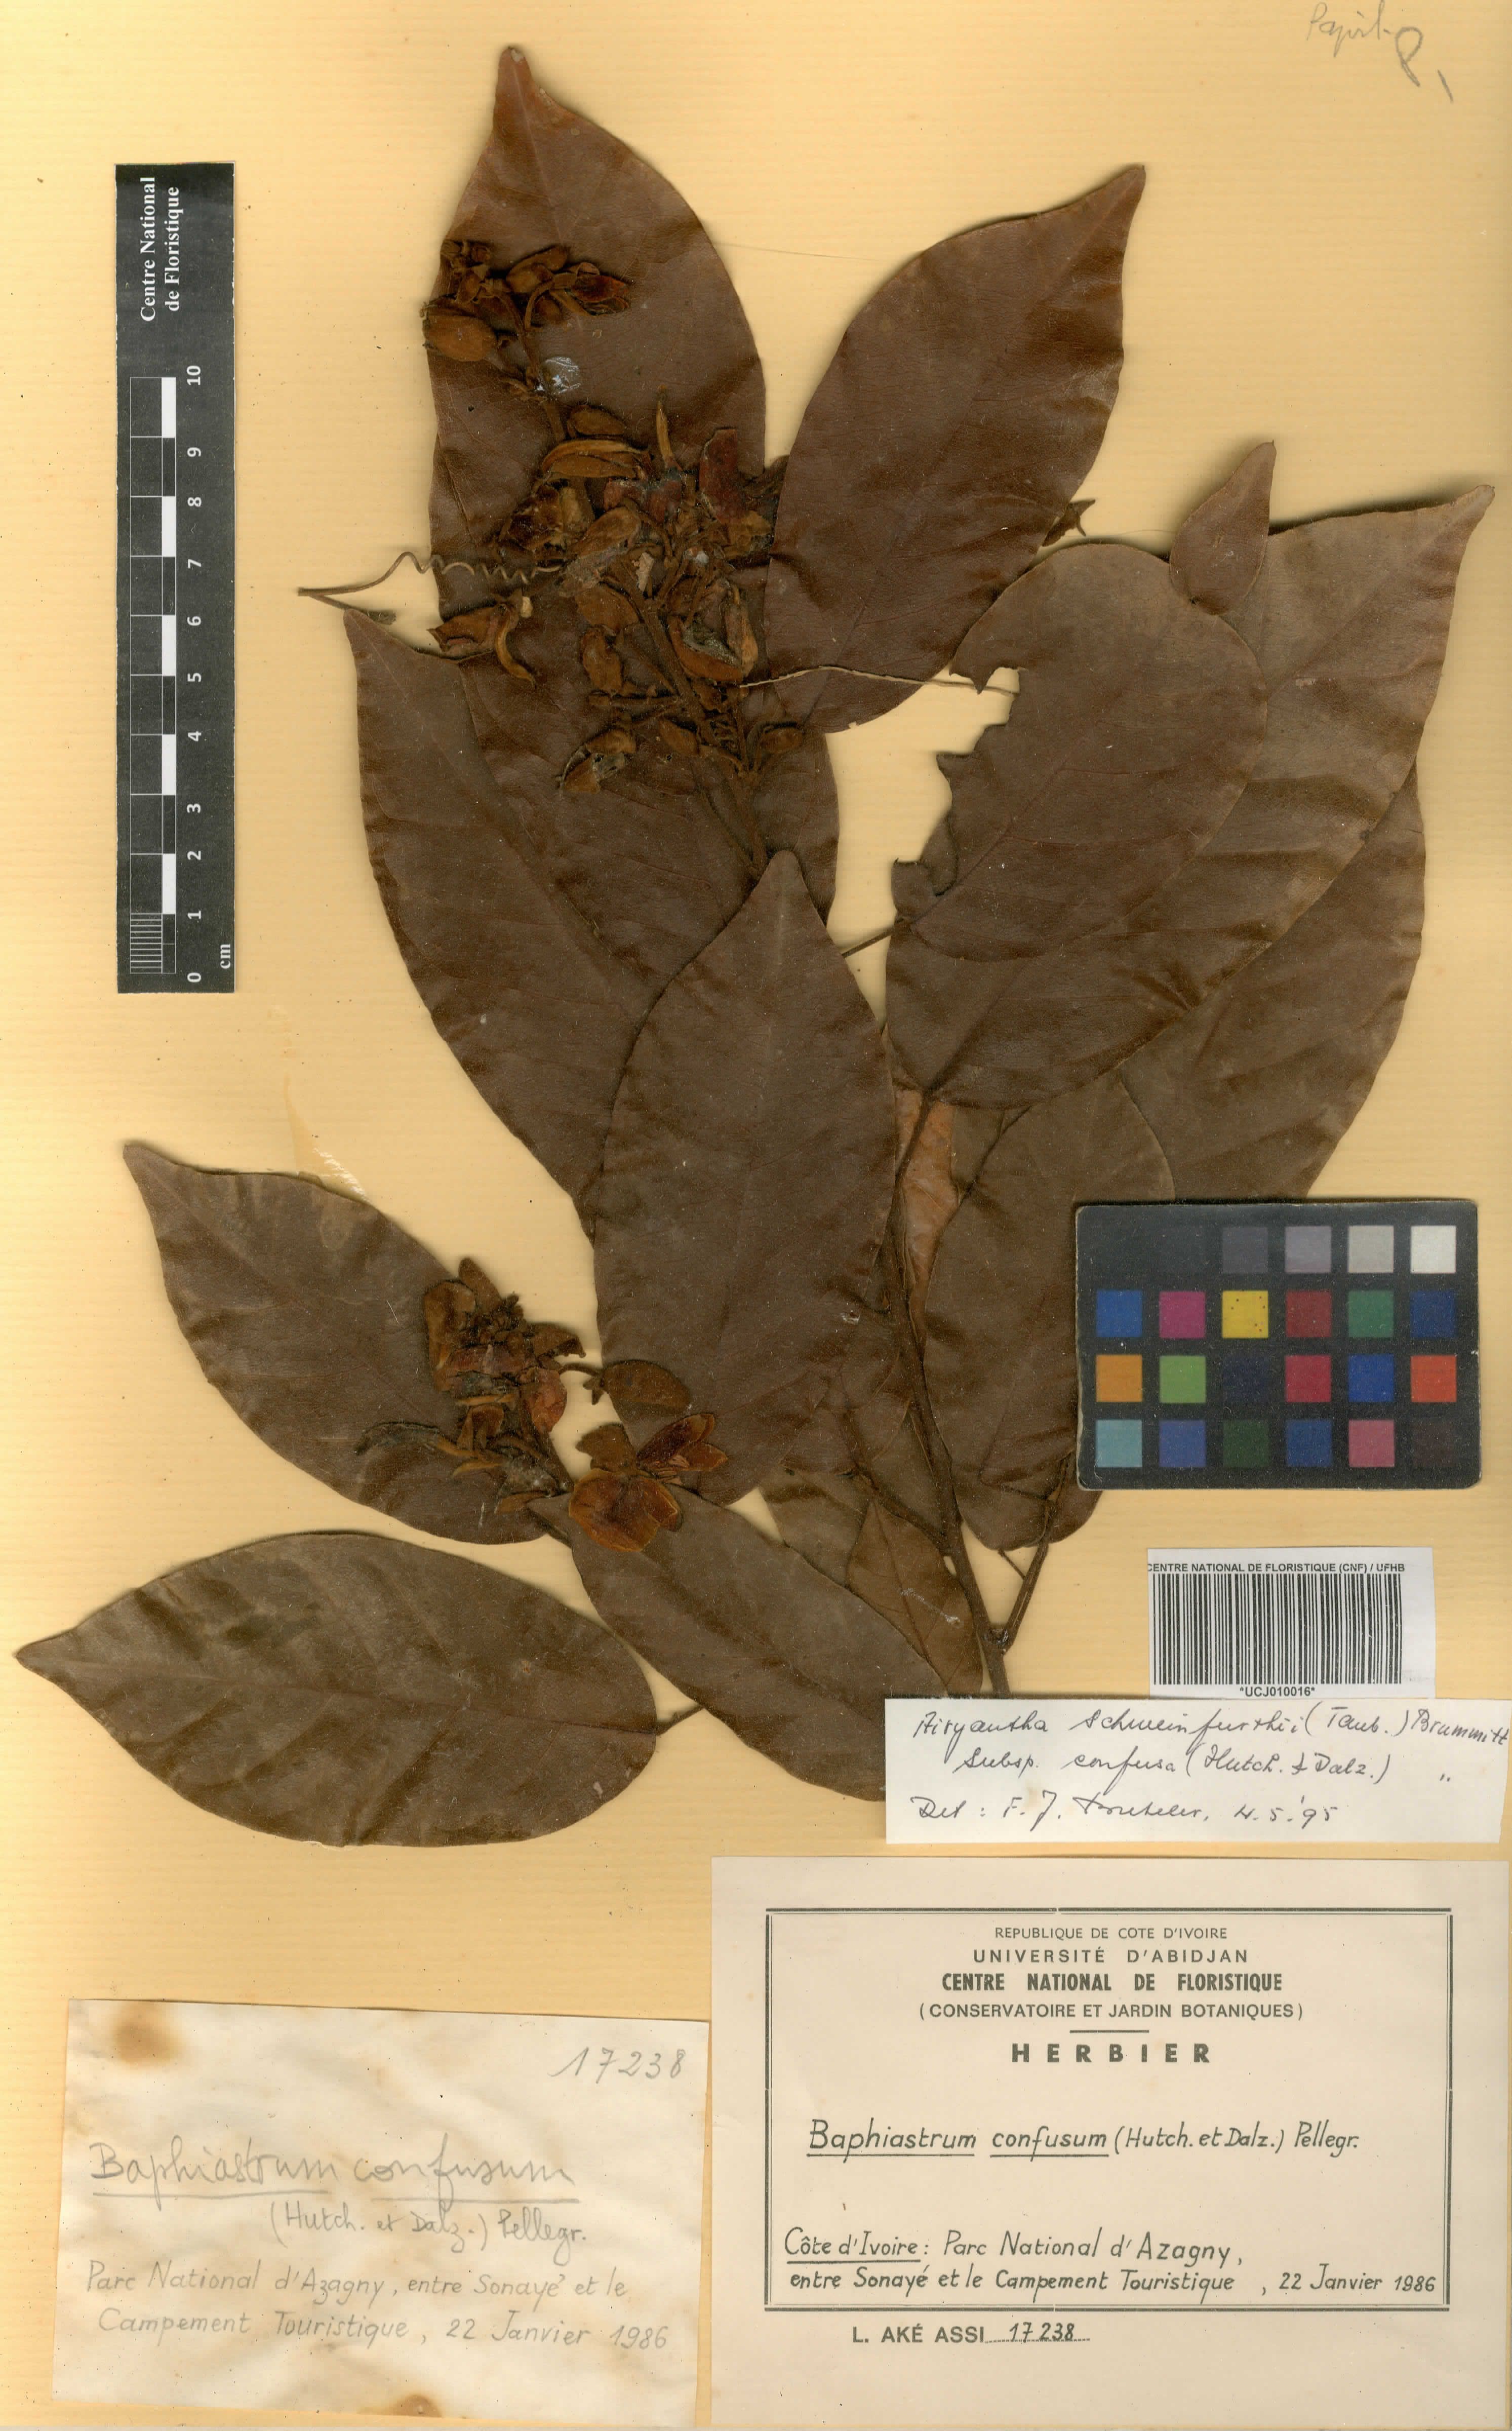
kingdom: Plantae
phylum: Tracheophyta
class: Magnoliopsida
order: Fabales
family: Fabaceae
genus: Airyantha
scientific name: Airyantha schweinfurthii
